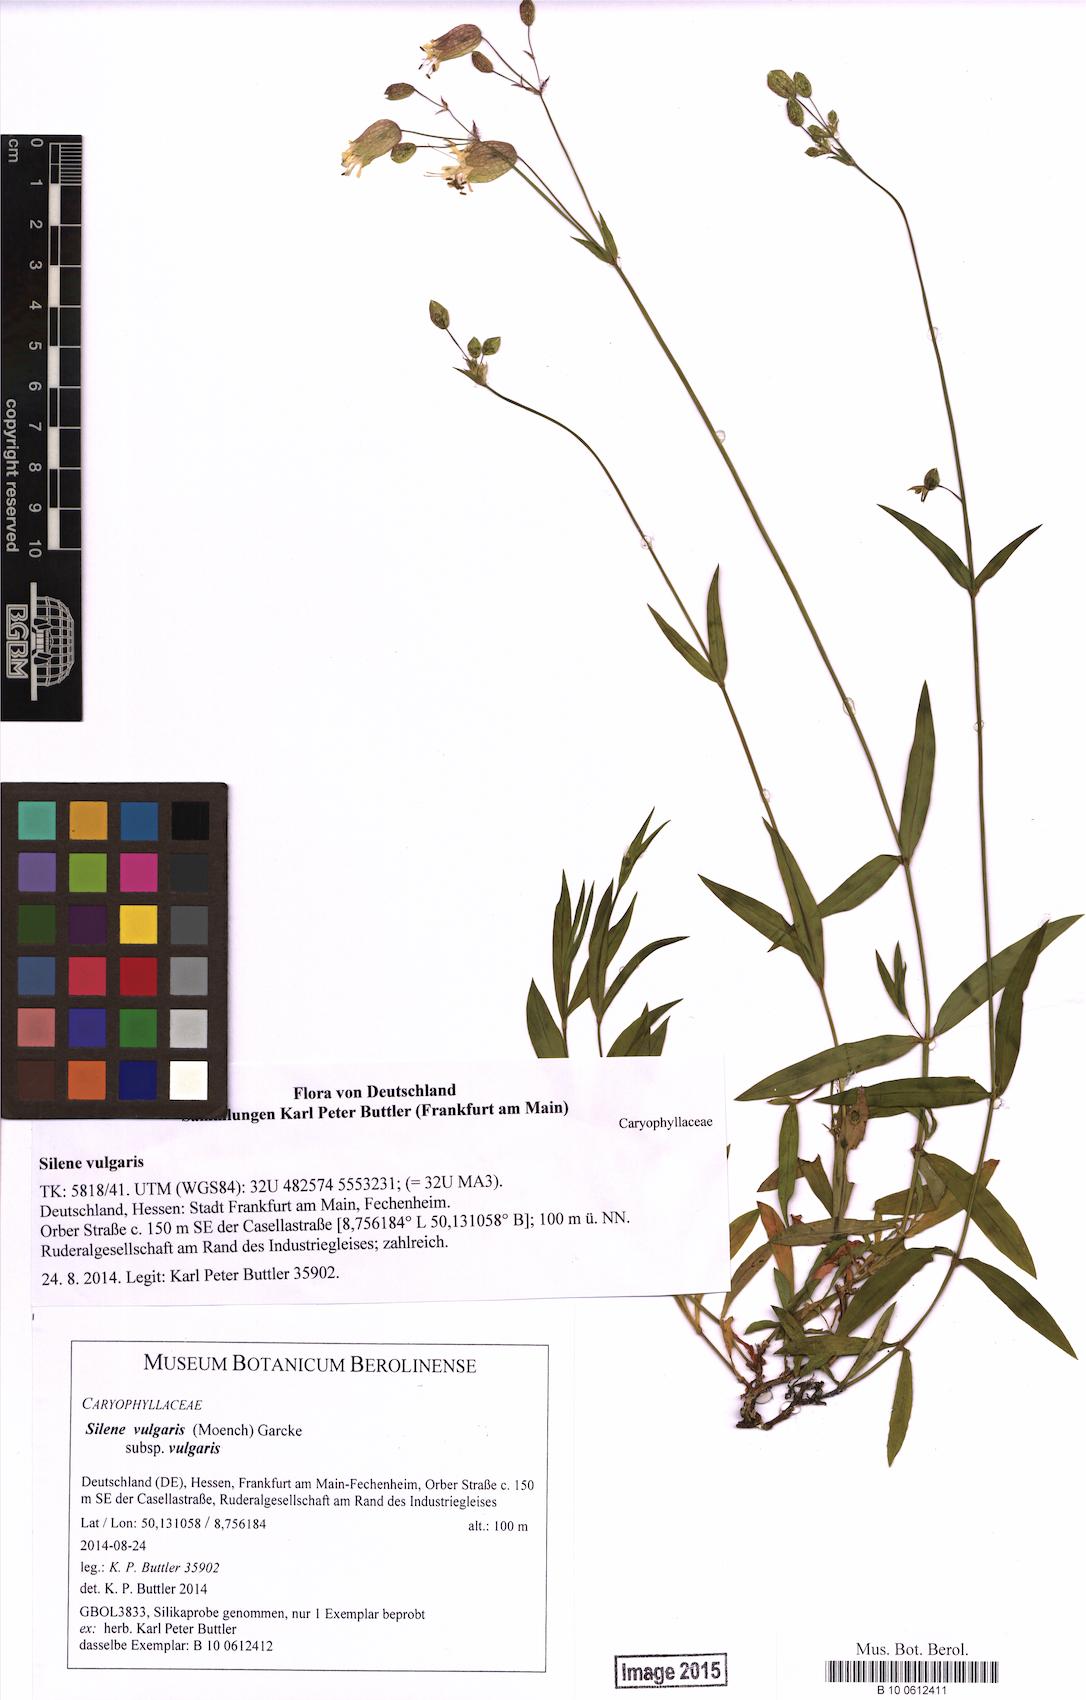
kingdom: Plantae
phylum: Tracheophyta
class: Magnoliopsida
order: Caryophyllales
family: Caryophyllaceae
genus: Silene
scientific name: Silene vulgaris
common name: Bladder campion
